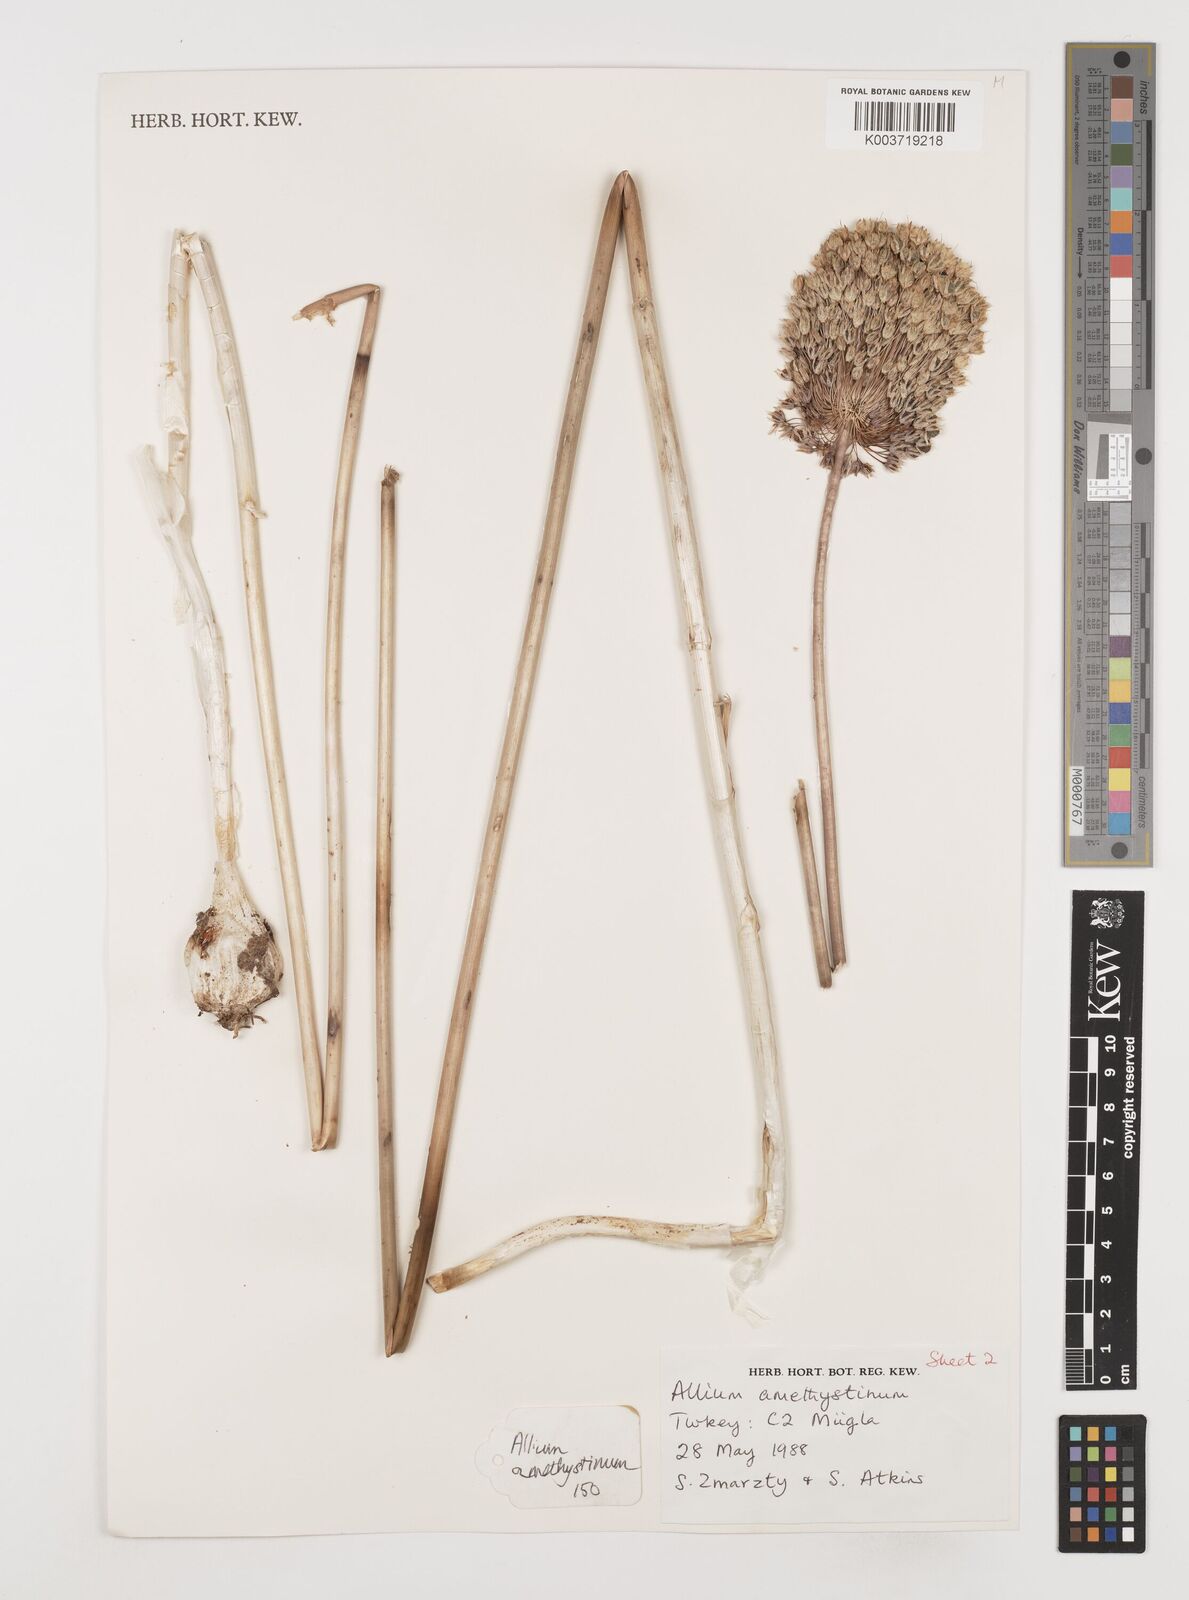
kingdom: Plantae
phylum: Tracheophyta
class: Liliopsida
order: Asparagales
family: Amaryllidaceae
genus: Allium
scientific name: Allium amethystinum
